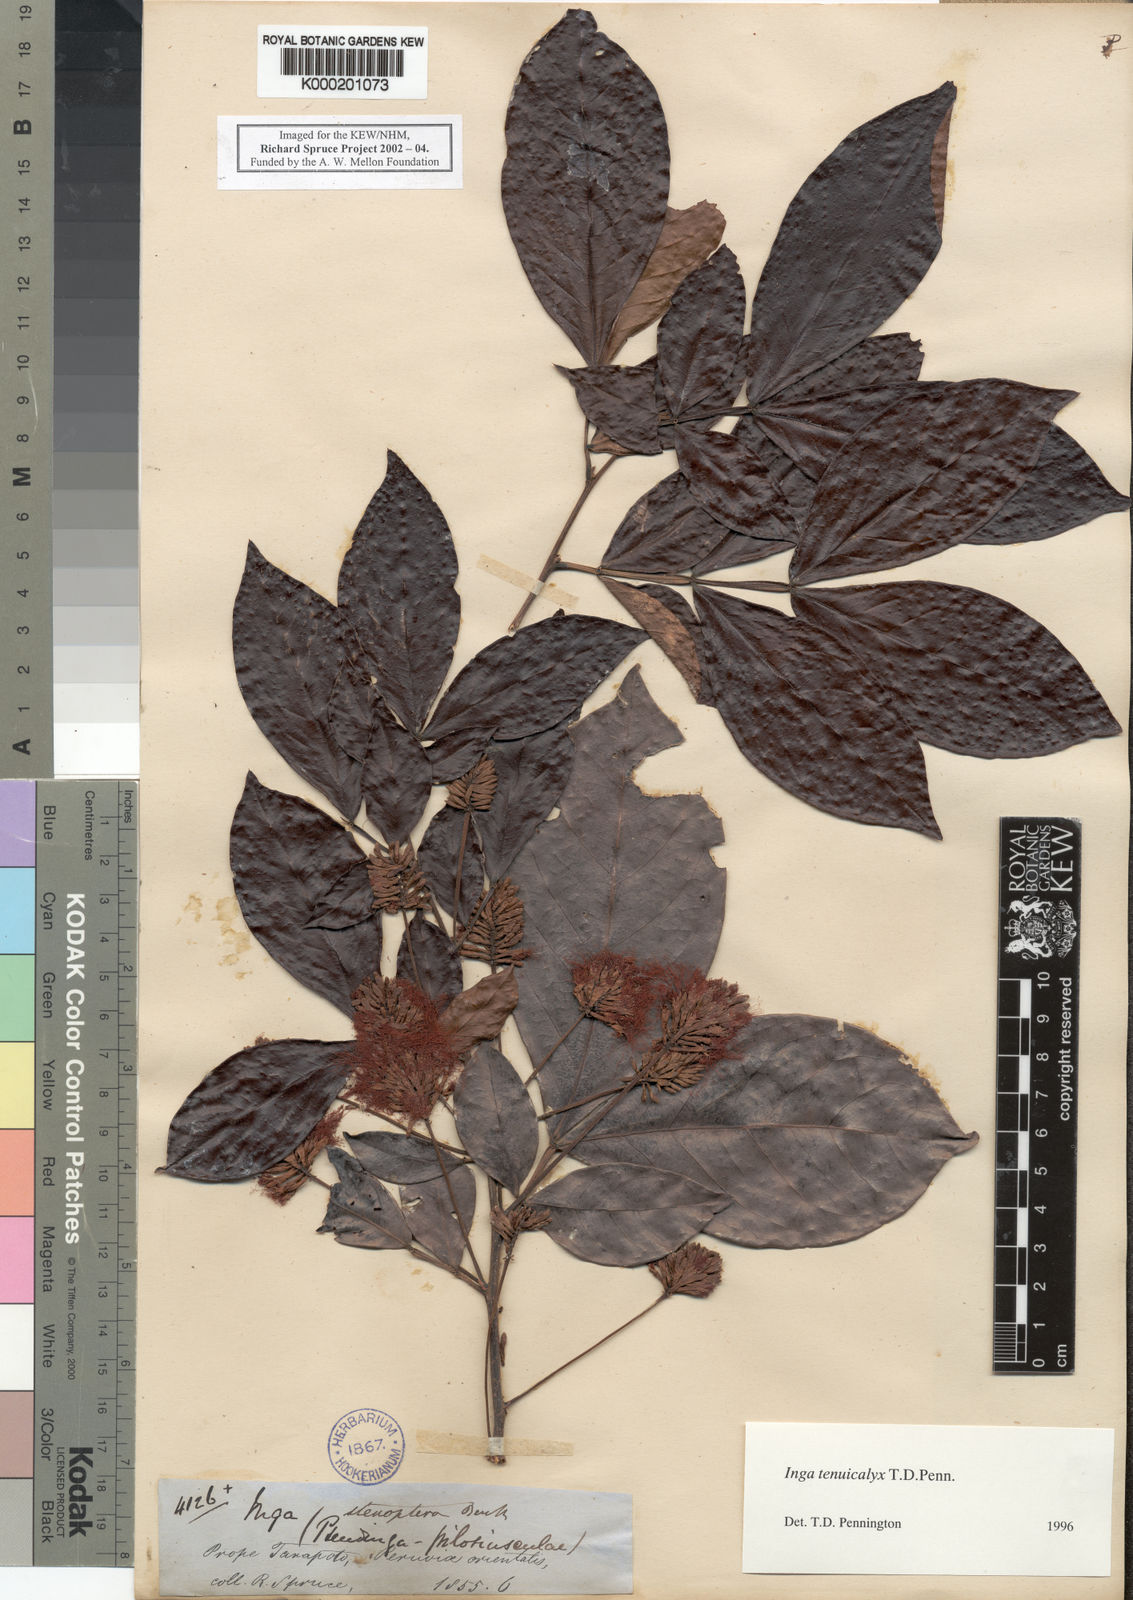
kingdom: Plantae
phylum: Tracheophyta
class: Magnoliopsida
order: Fabales
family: Fabaceae
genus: Inga
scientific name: Inga tenuicalyx
